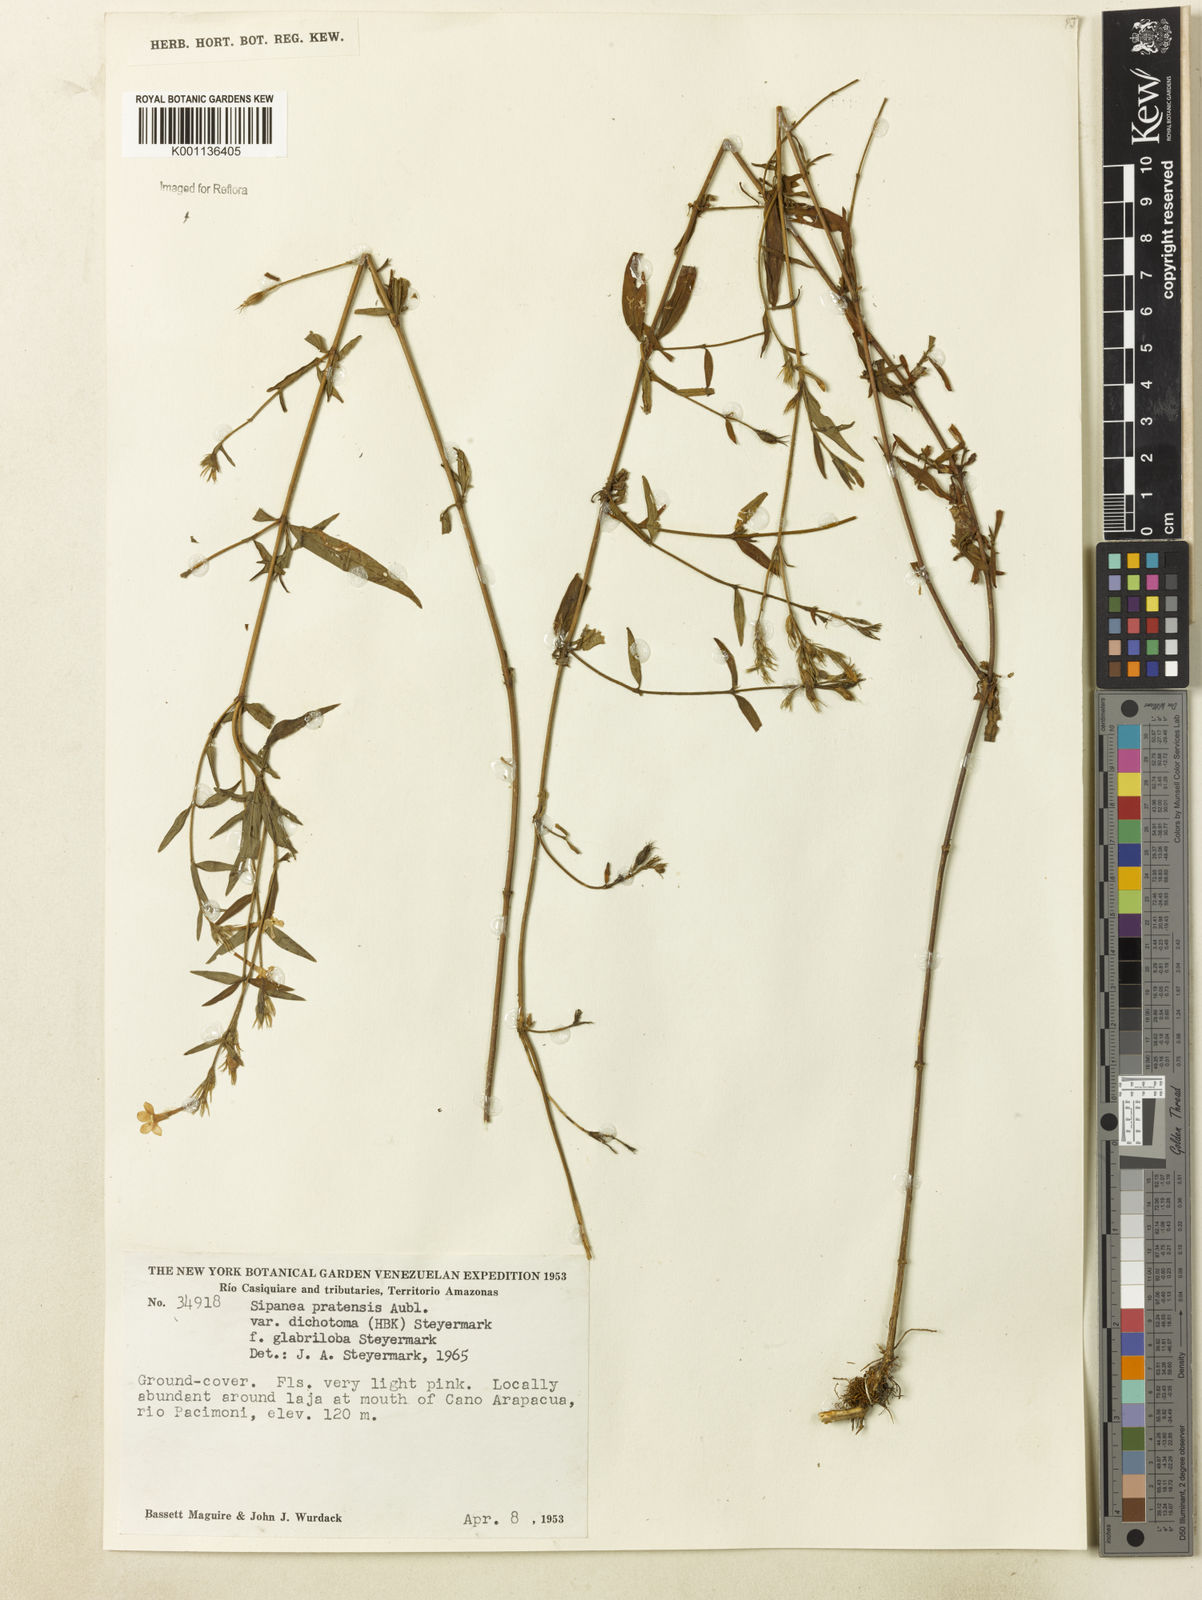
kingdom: Plantae
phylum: Tracheophyta
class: Magnoliopsida
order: Gentianales
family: Rubiaceae
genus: Sipanea
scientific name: Sipanea pratensis
